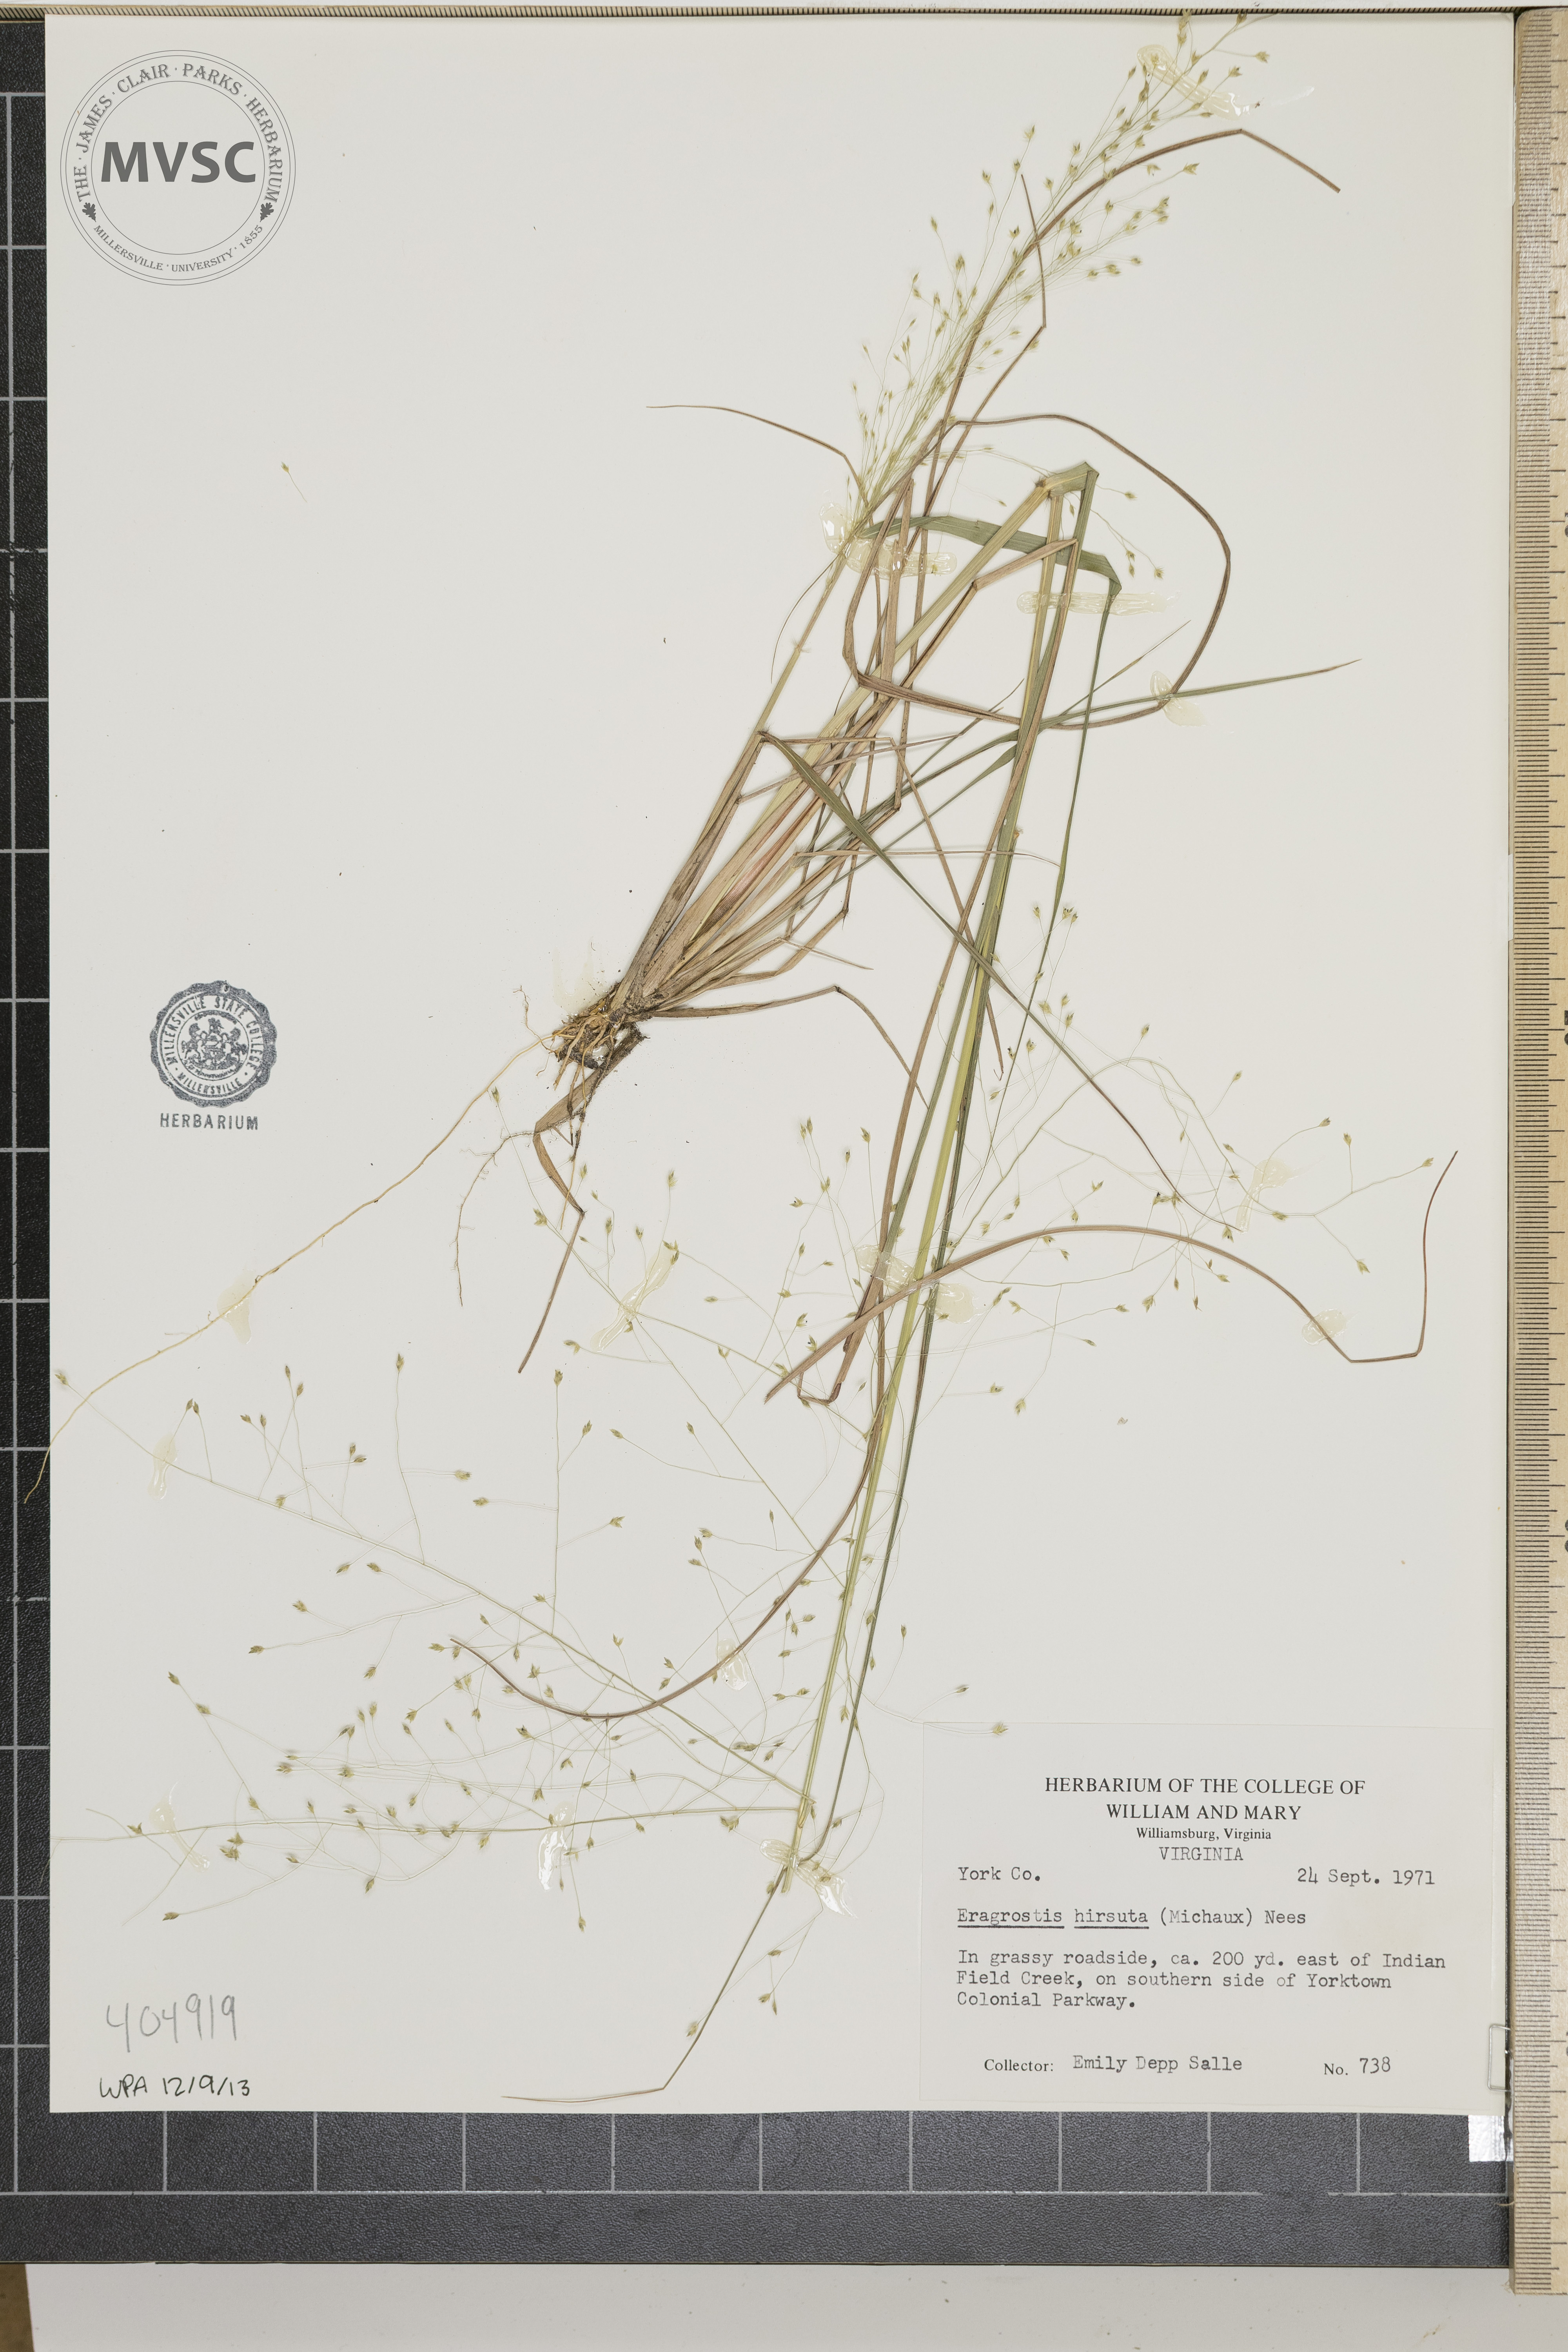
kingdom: Plantae
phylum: Tracheophyta
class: Liliopsida
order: Poales
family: Poaceae
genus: Eragrostis
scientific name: Eragrostis hirsuta
